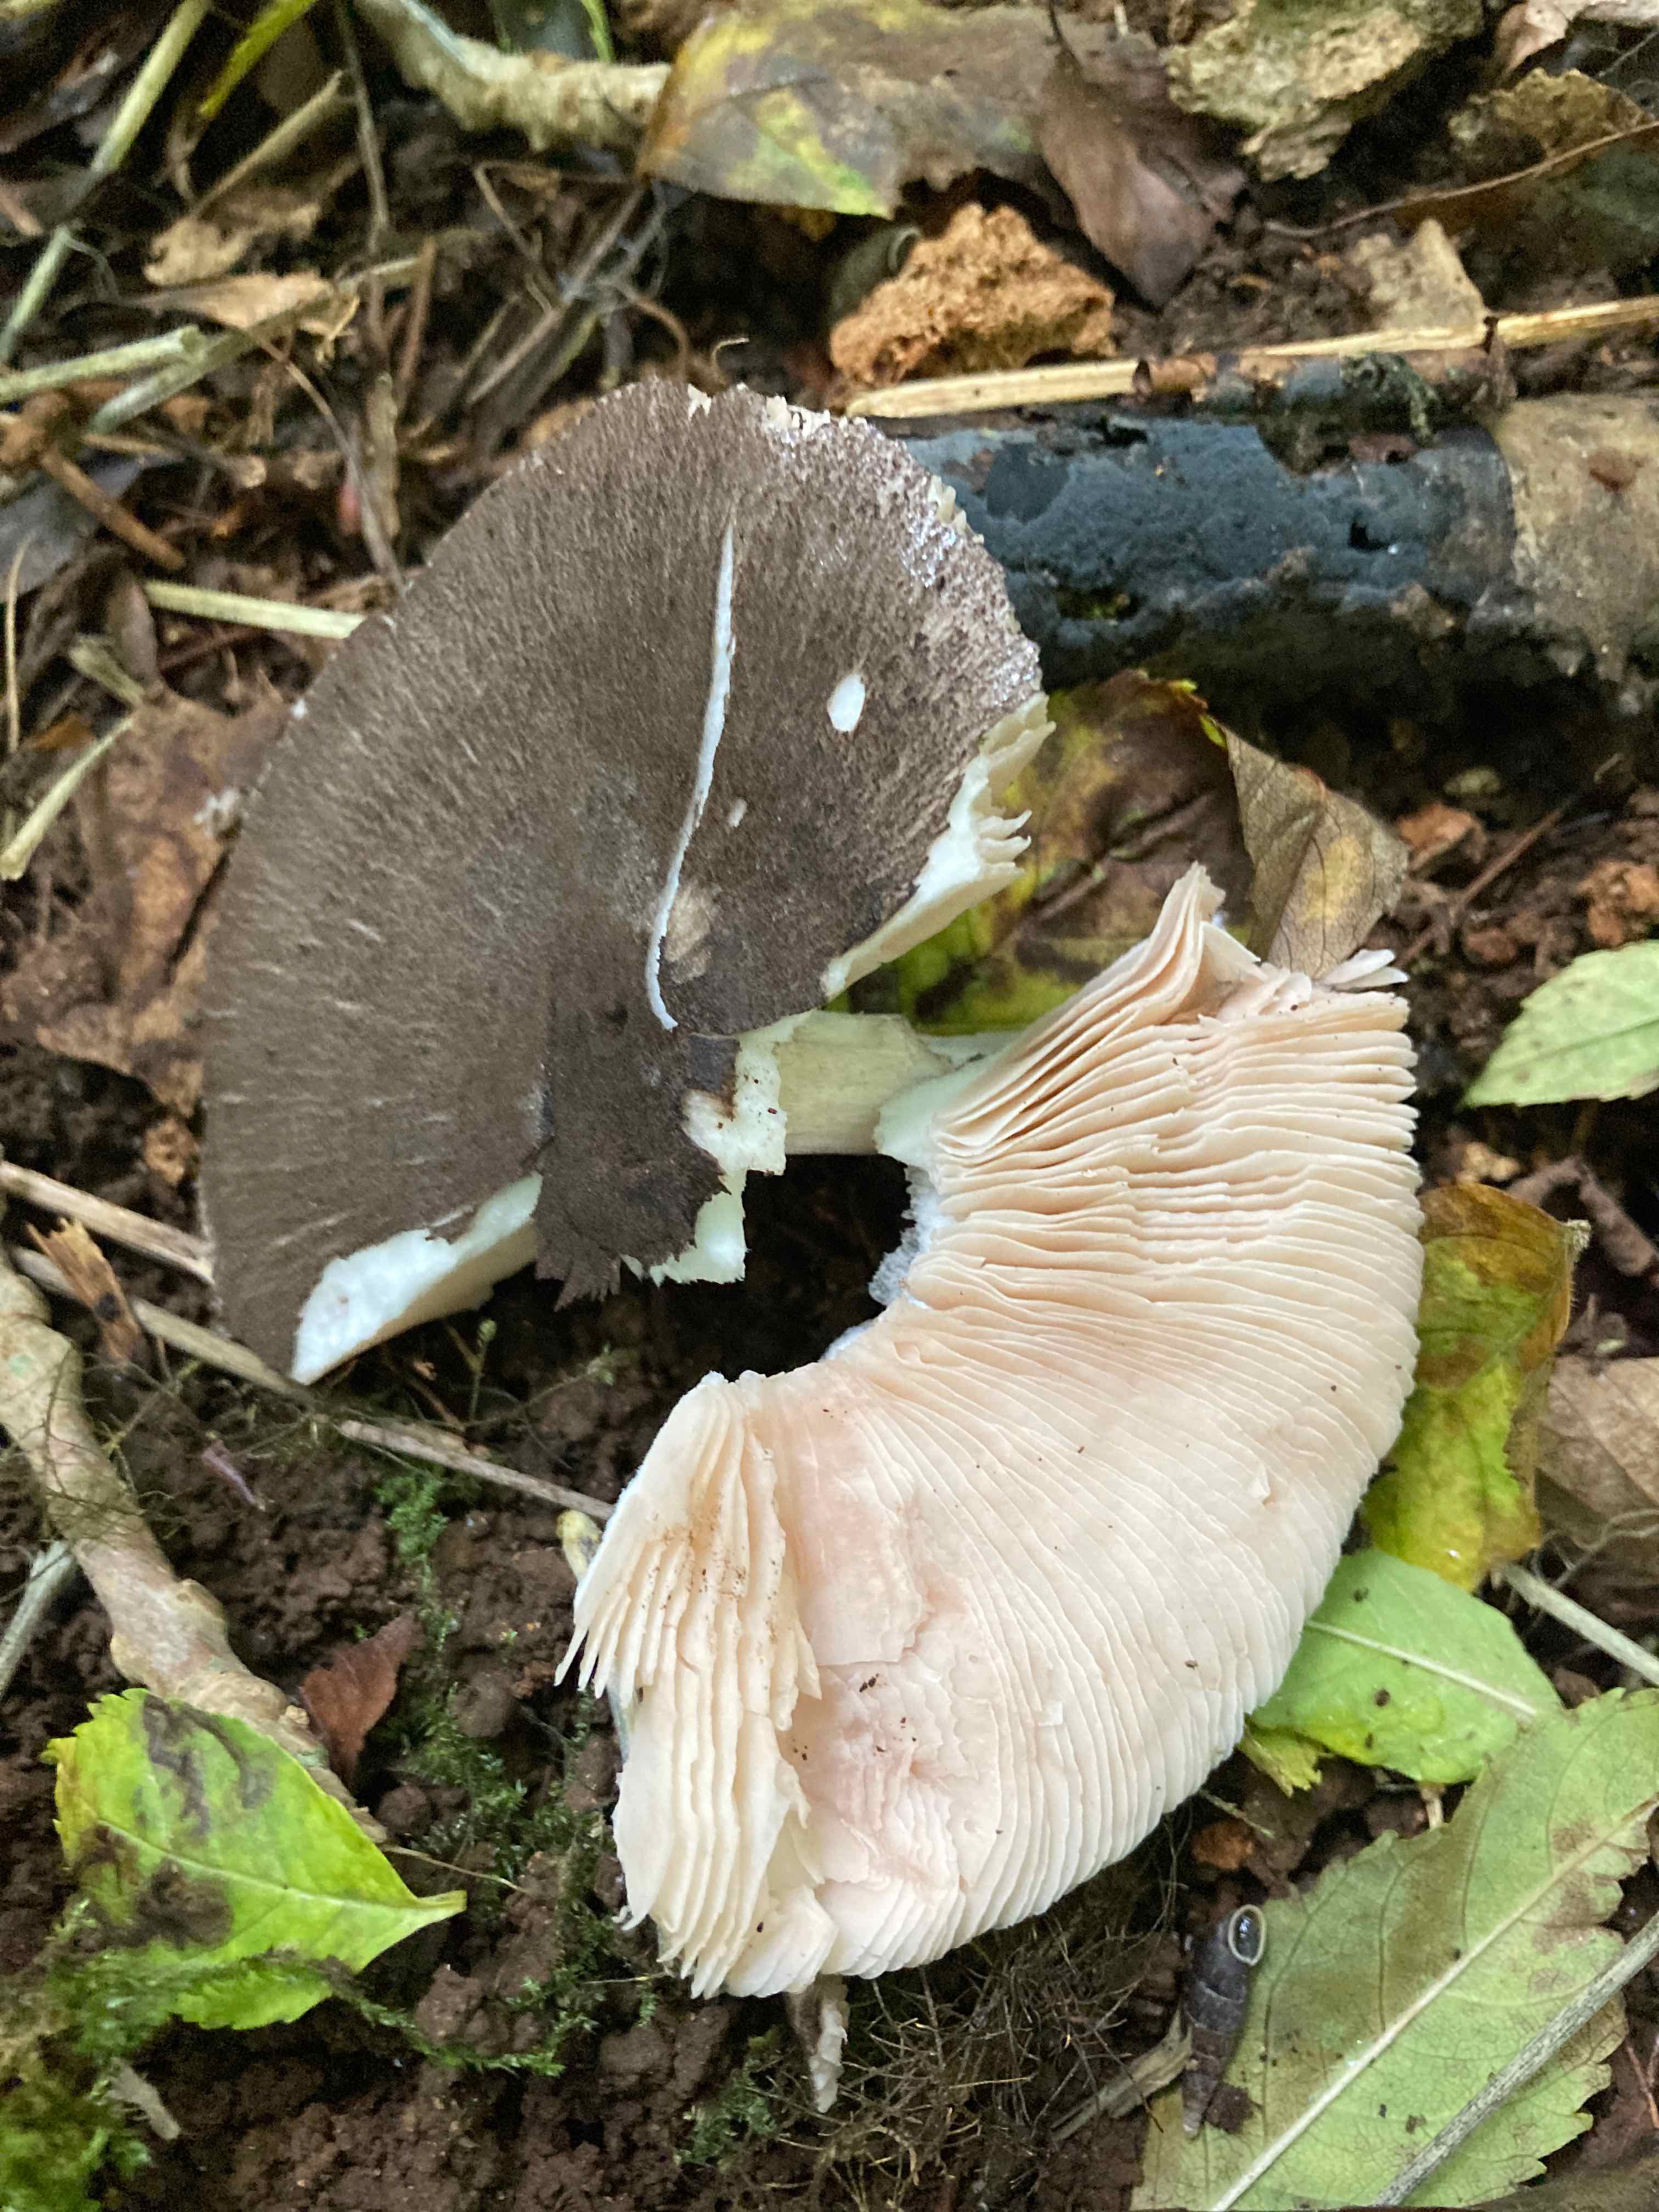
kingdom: Fungi
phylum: Basidiomycota
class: Agaricomycetes
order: Agaricales
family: Pluteaceae
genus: Pluteus
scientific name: Pluteus
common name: gråfibret skærmhat
